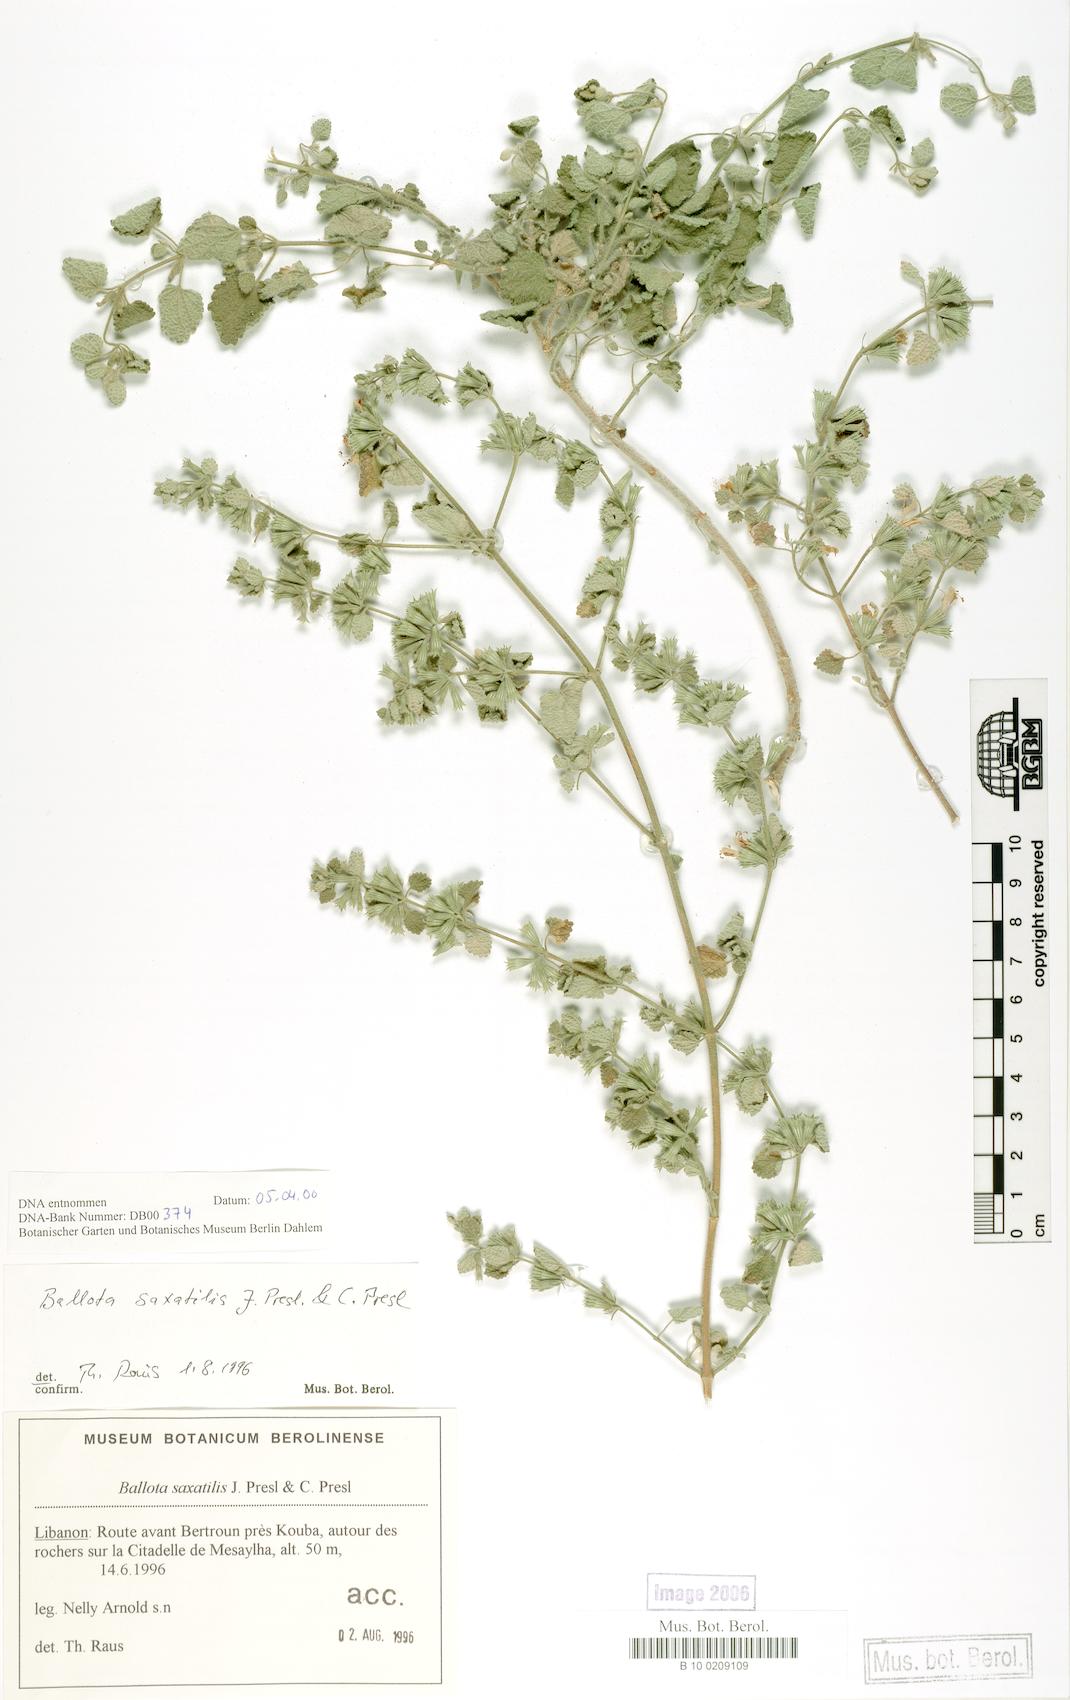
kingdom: Plantae
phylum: Tracheophyta
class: Magnoliopsida
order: Lamiales
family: Lamiaceae
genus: Ballota
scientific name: Ballota saxatilis
